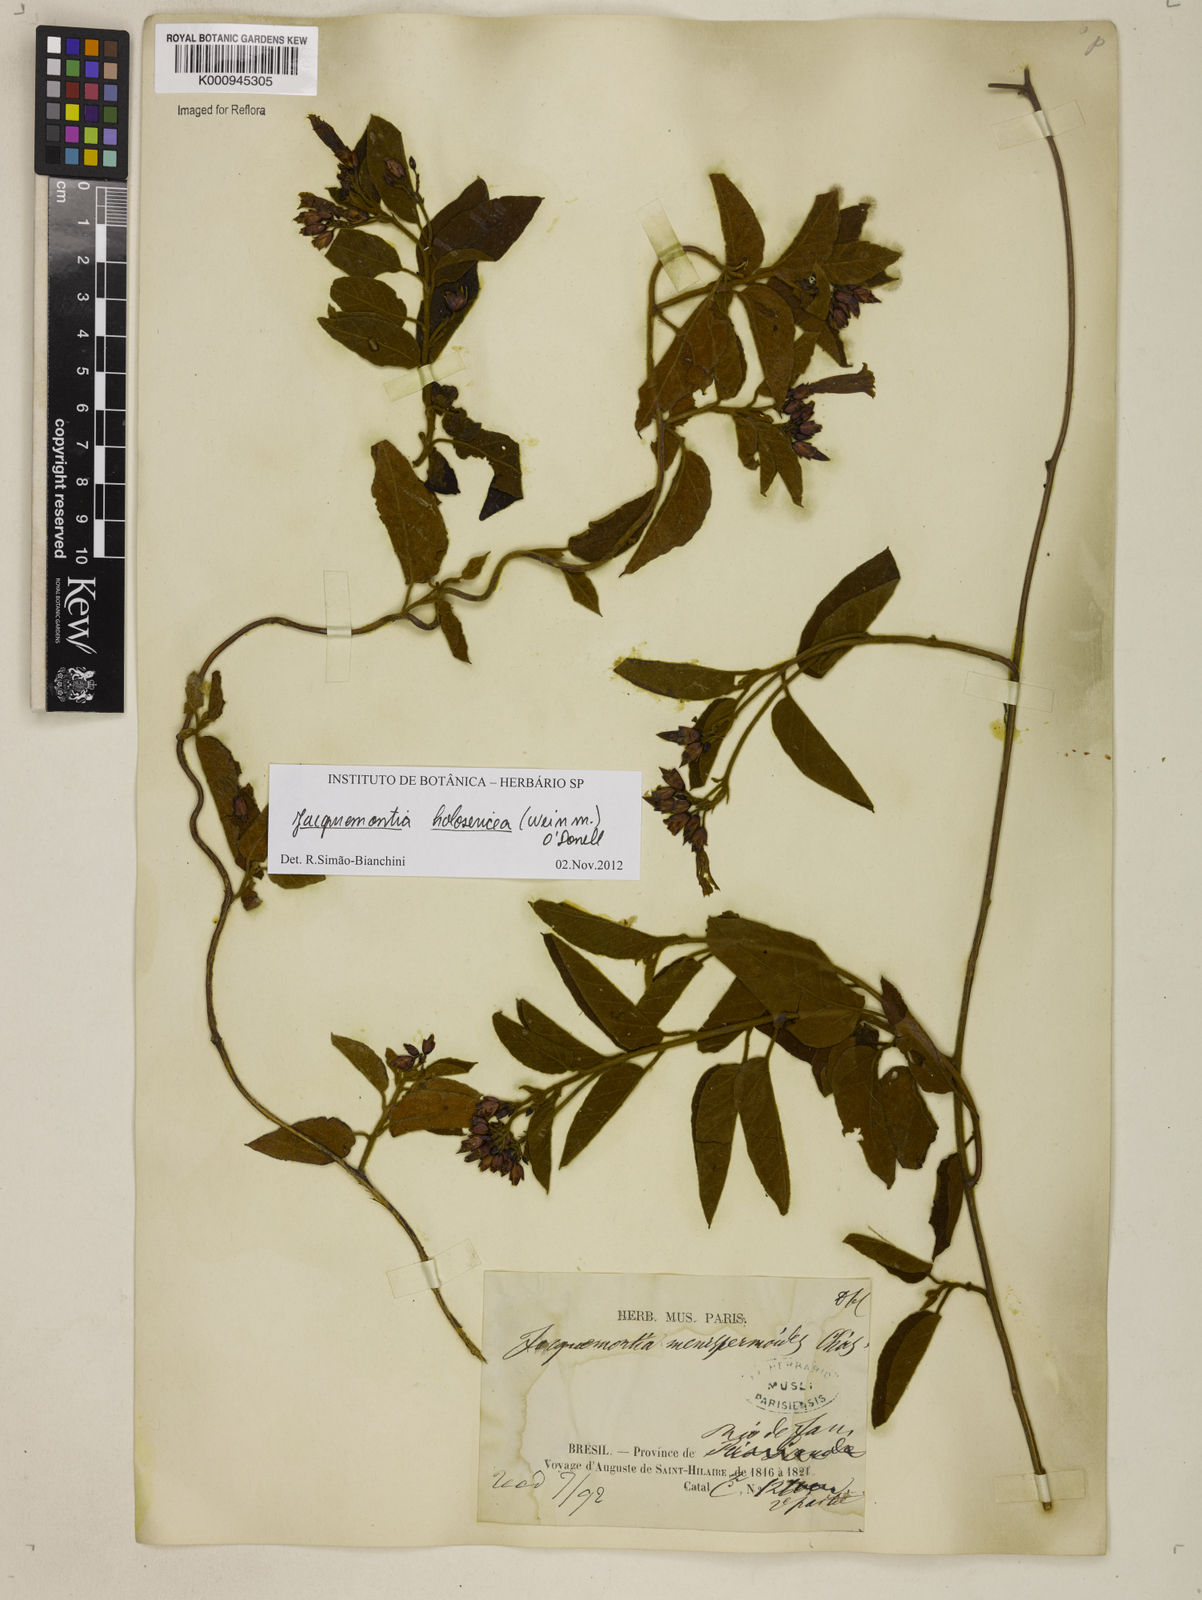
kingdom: Plantae
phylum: Tracheophyta
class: Magnoliopsida
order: Solanales
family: Convolvulaceae
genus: Jacquemontia
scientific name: Jacquemontia holosericea
